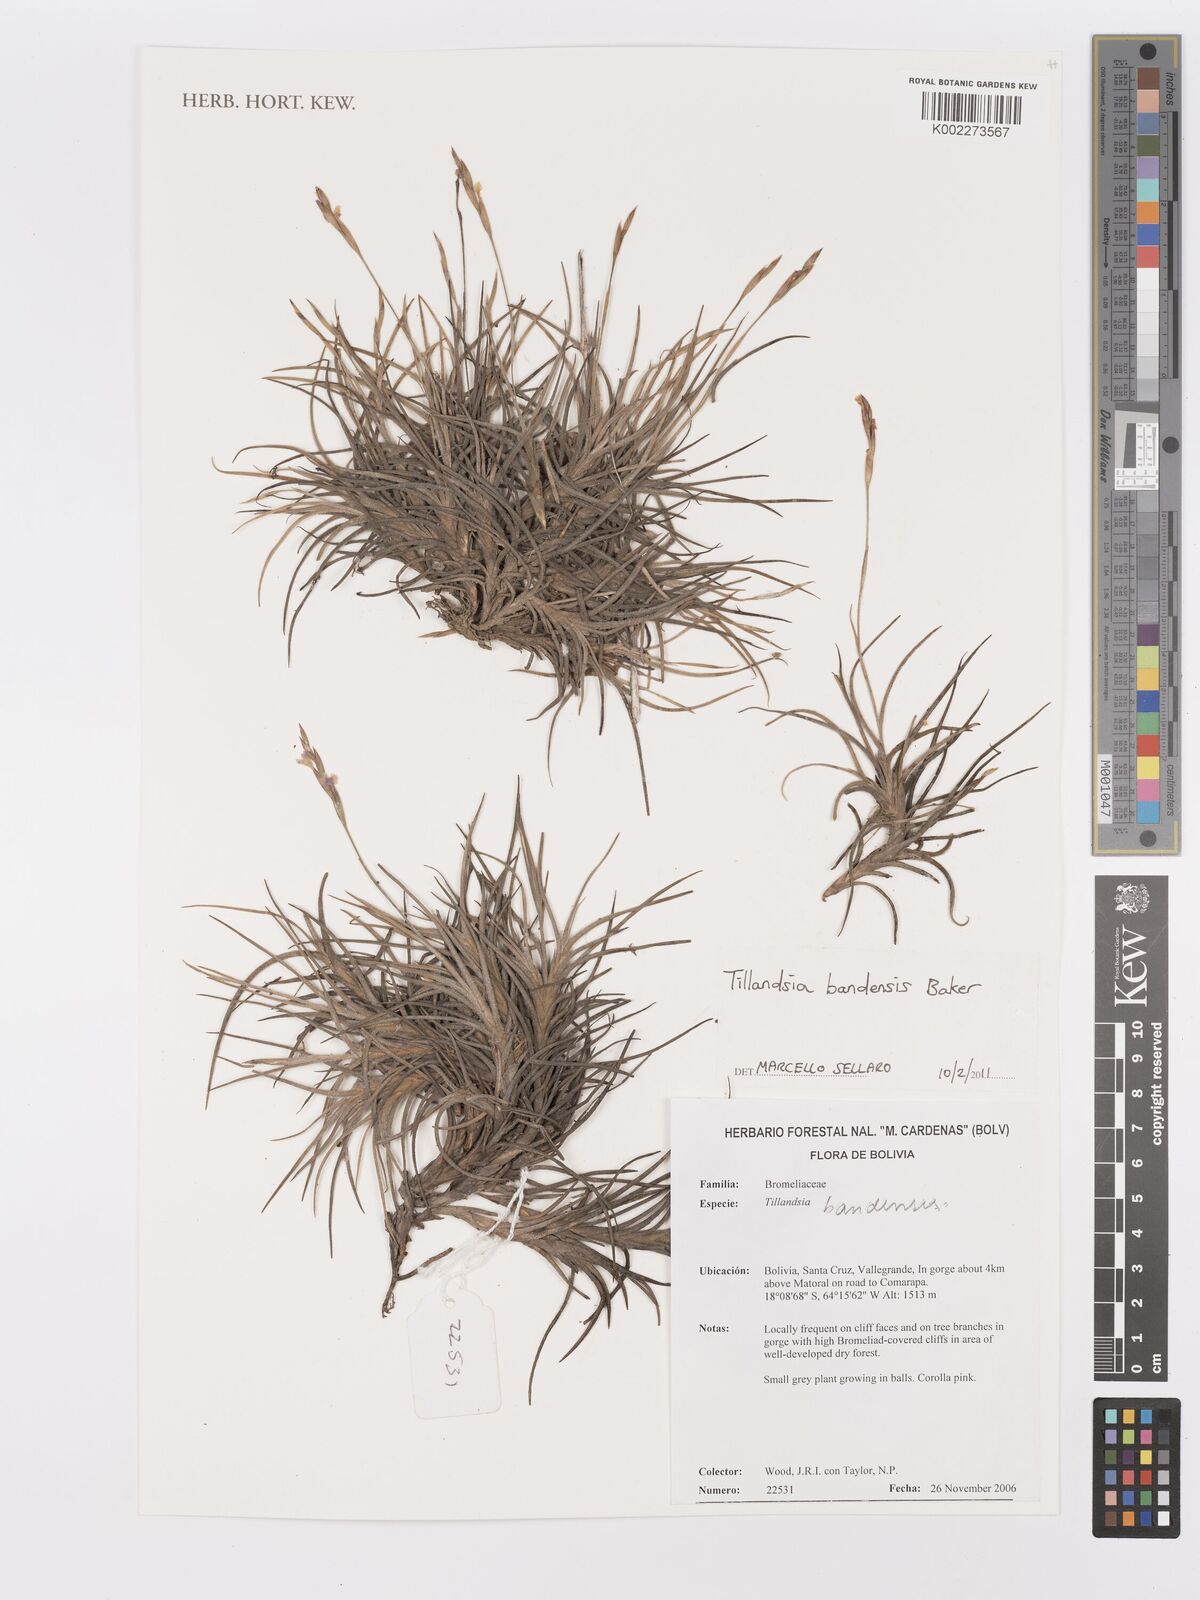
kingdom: Plantae
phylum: Tracheophyta
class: Liliopsida
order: Poales
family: Bromeliaceae
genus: Tillandsia
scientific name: Tillandsia bandensis
